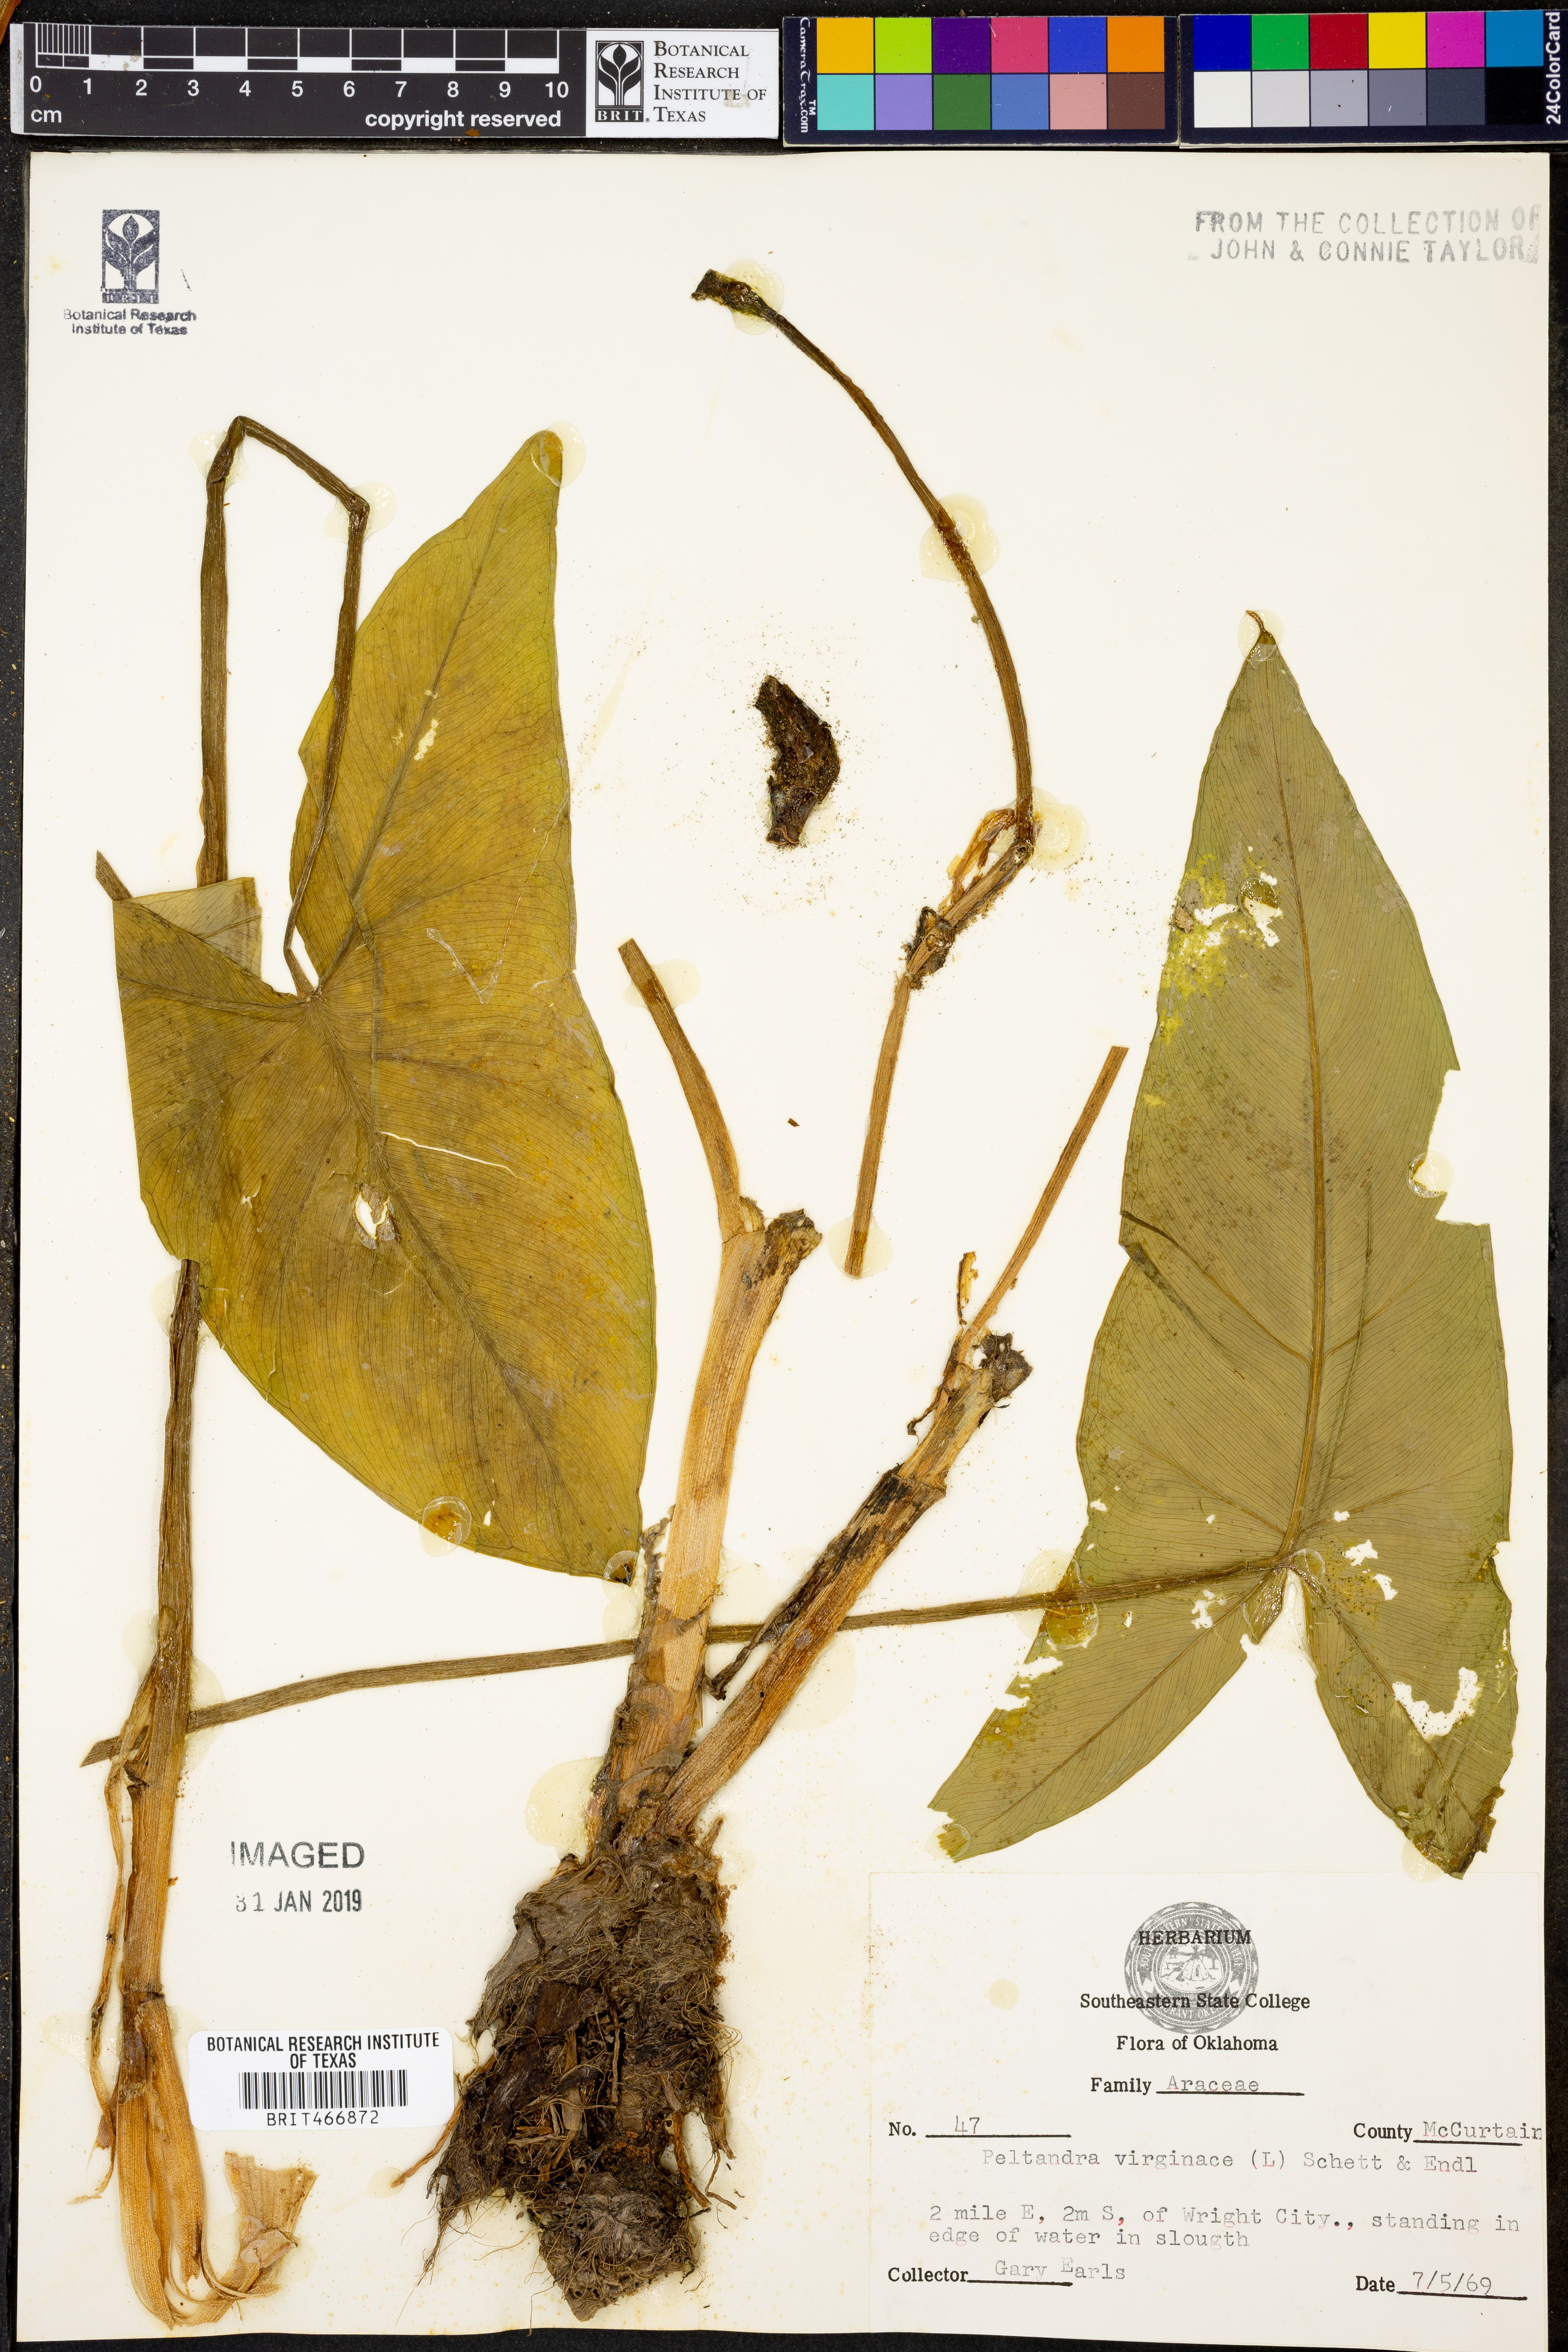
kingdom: Plantae
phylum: Tracheophyta
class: Liliopsida
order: Alismatales
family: Araceae
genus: Peltandra
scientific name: Peltandra virginica
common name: Arrow arum
